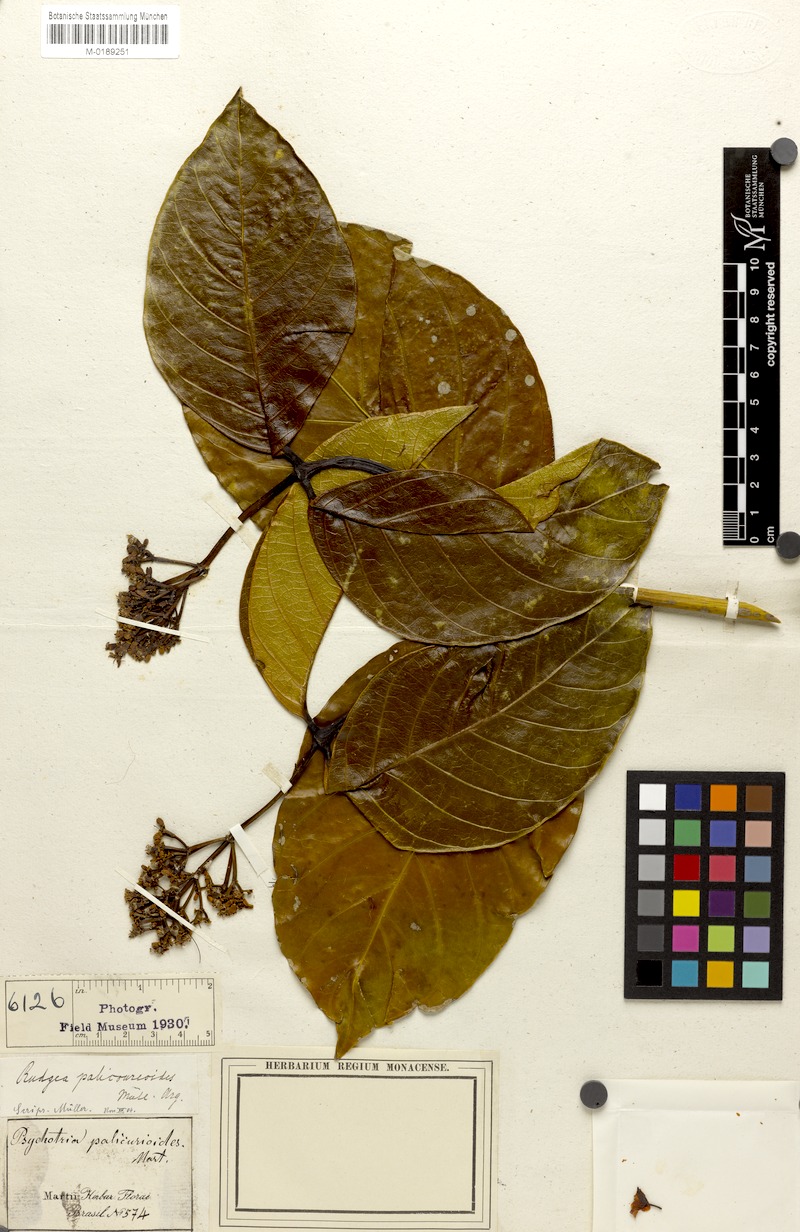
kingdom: Plantae
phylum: Tracheophyta
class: Magnoliopsida
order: Gentianales
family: Rubiaceae
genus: Rudgea
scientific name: Rudgea palicoureoides
